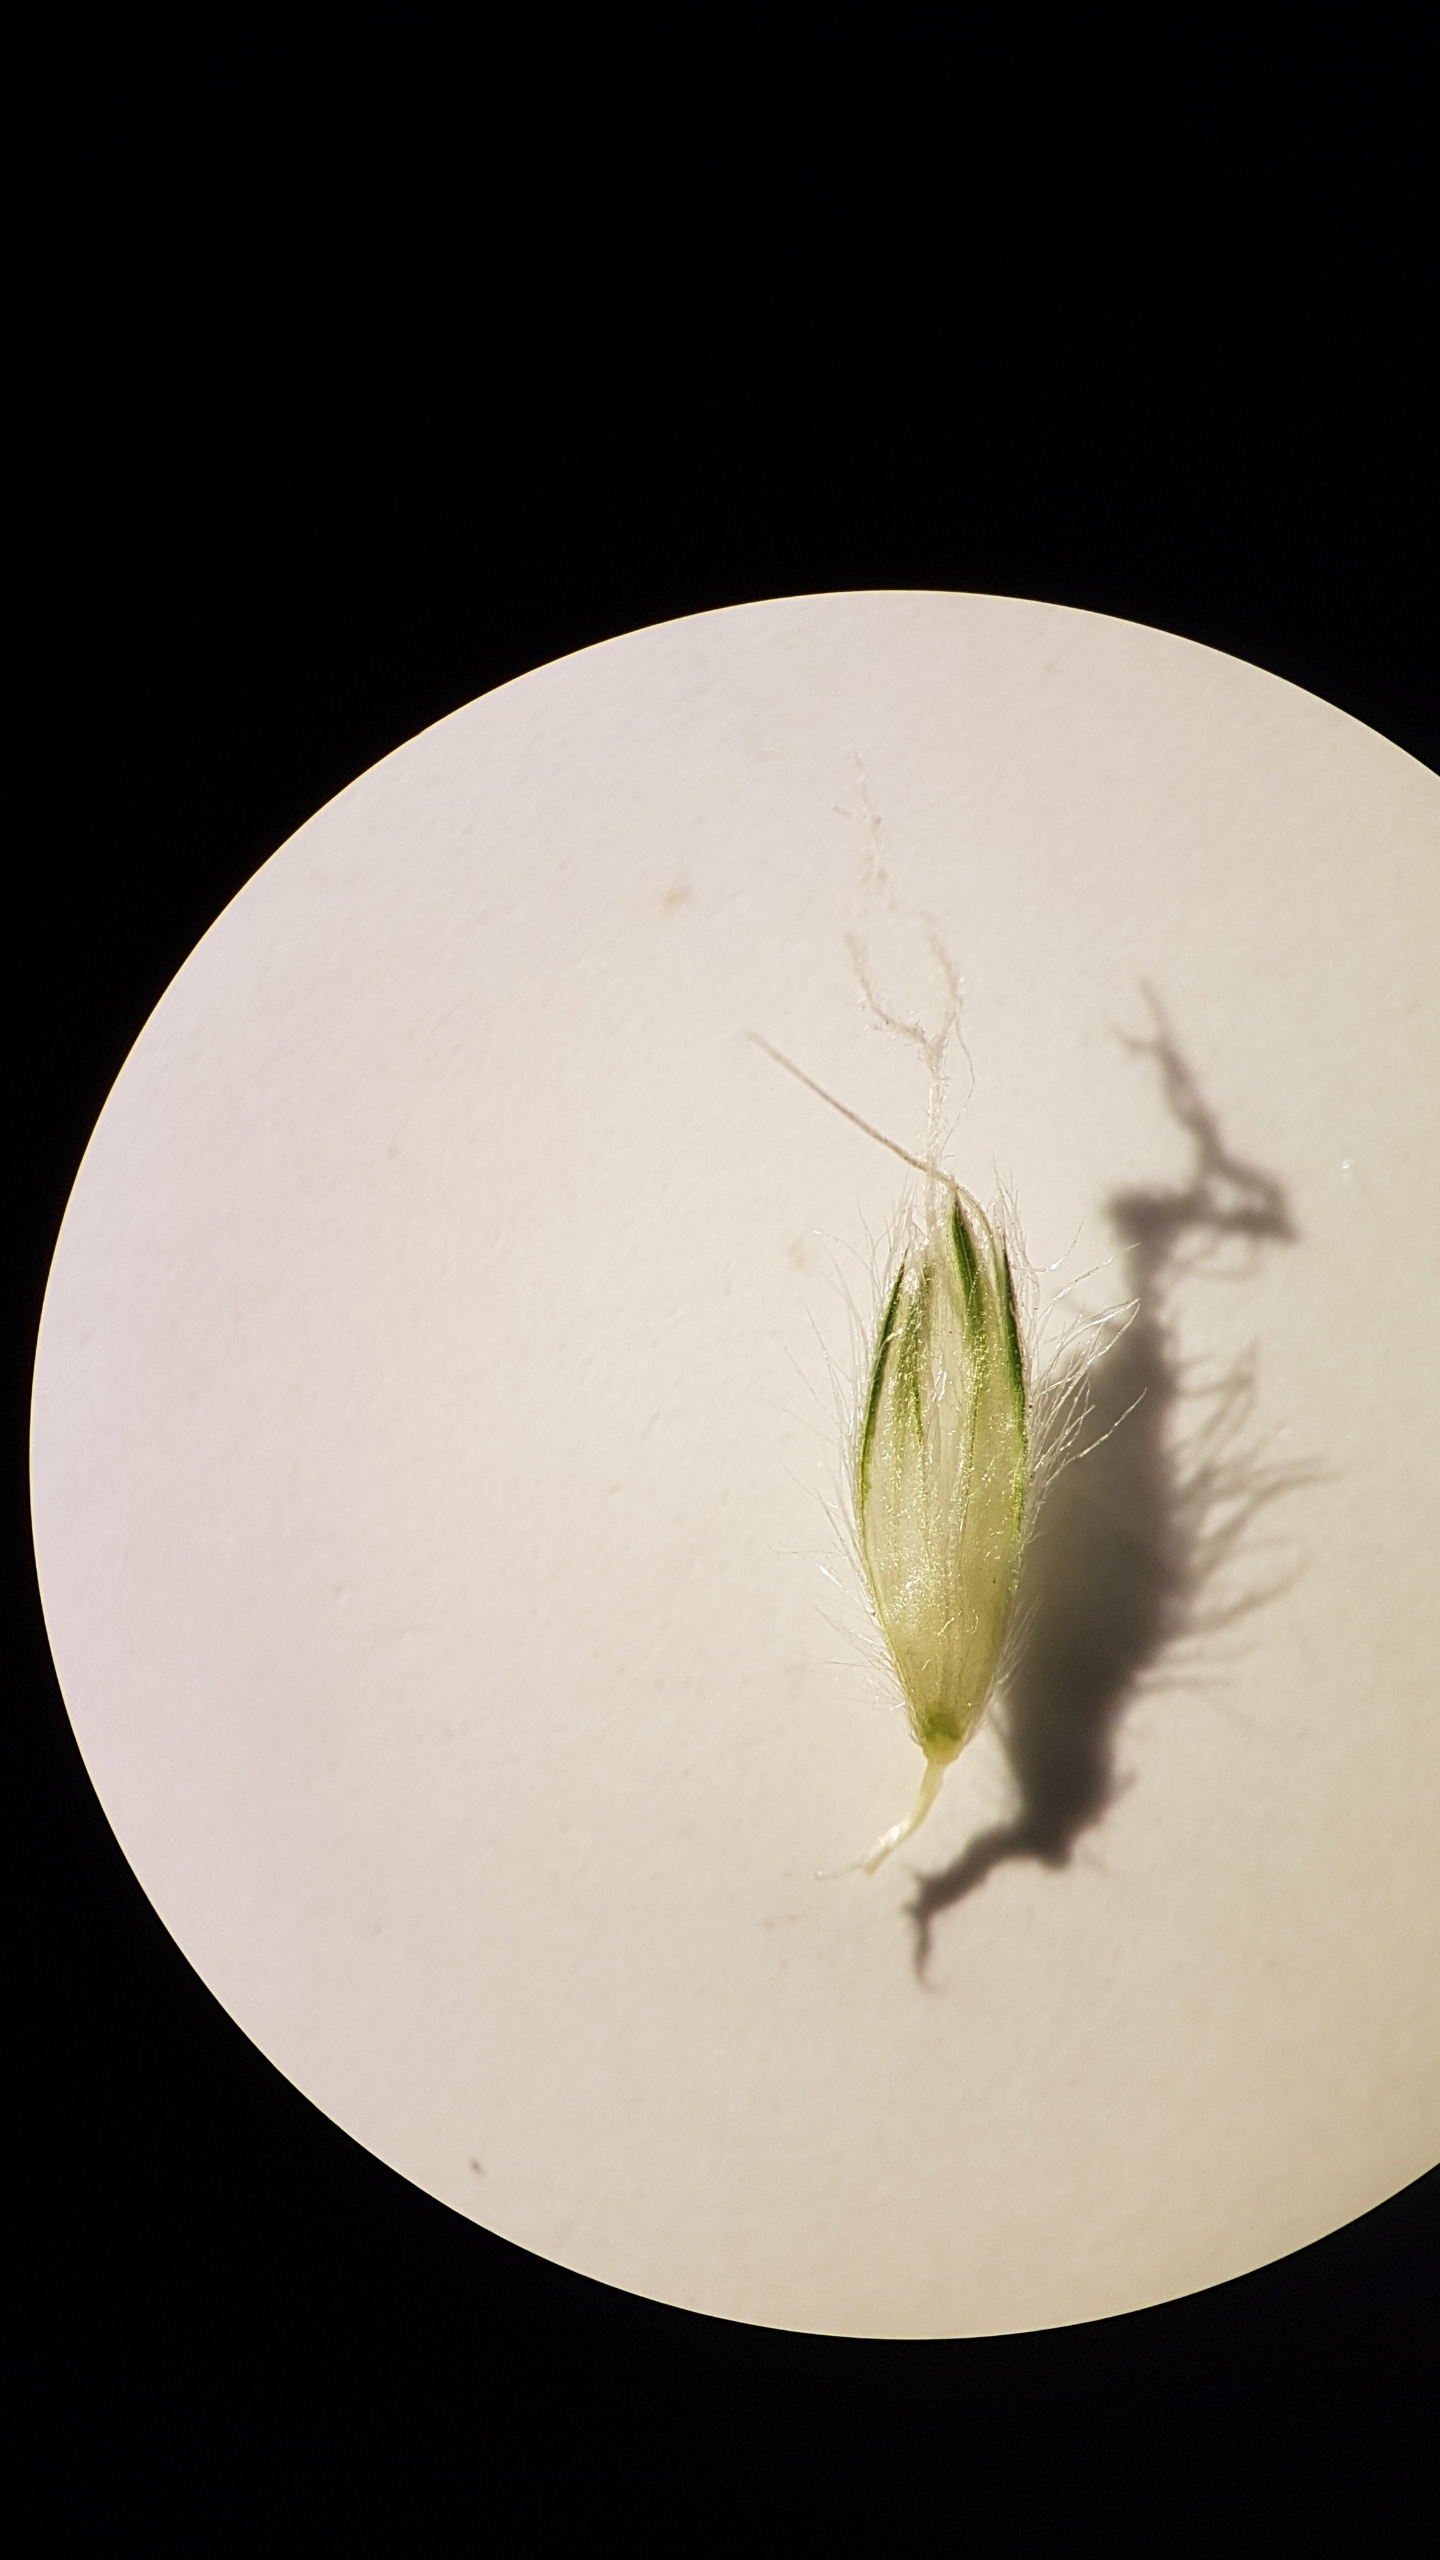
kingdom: Plantae
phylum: Tracheophyta
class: Liliopsida
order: Poales
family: Poaceae
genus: Alopecurus
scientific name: Alopecurus pratensis
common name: Eng-rævehale
